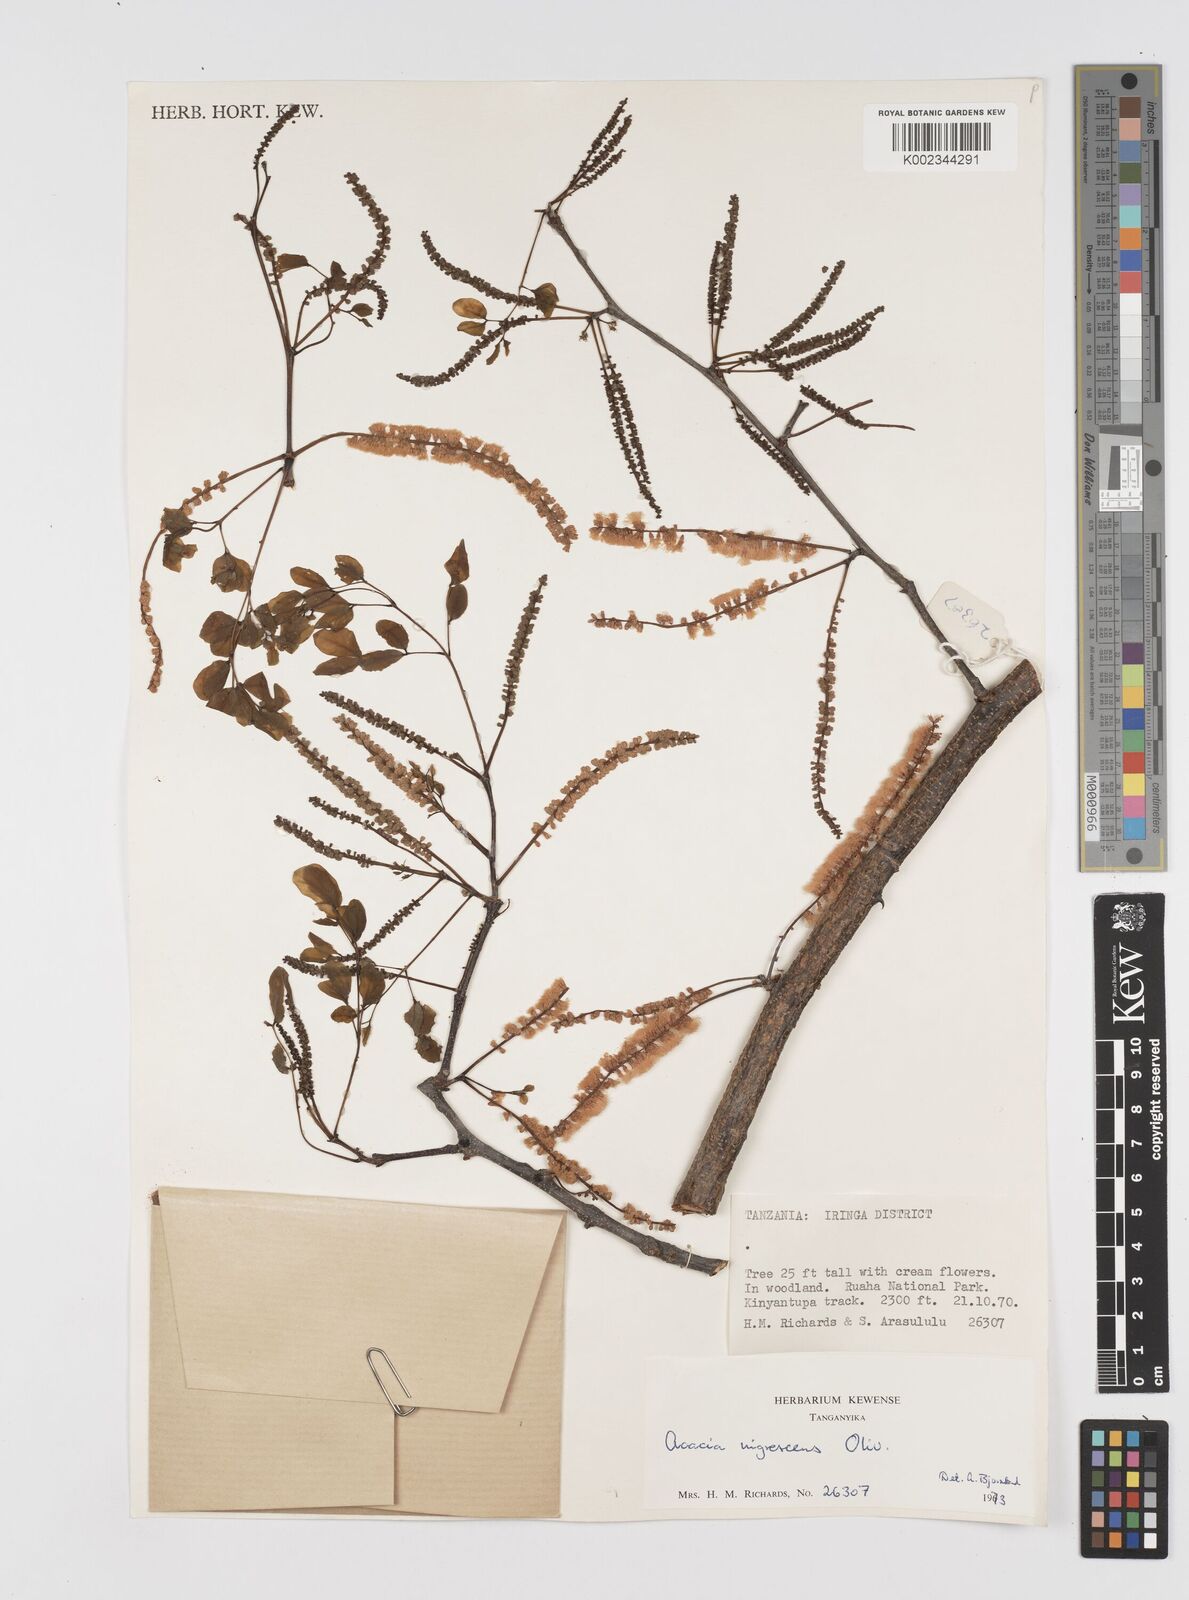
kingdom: Plantae
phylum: Tracheophyta
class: Magnoliopsida
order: Fabales
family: Fabaceae
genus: Senegalia
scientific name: Senegalia nigrescens
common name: Knobthorn
